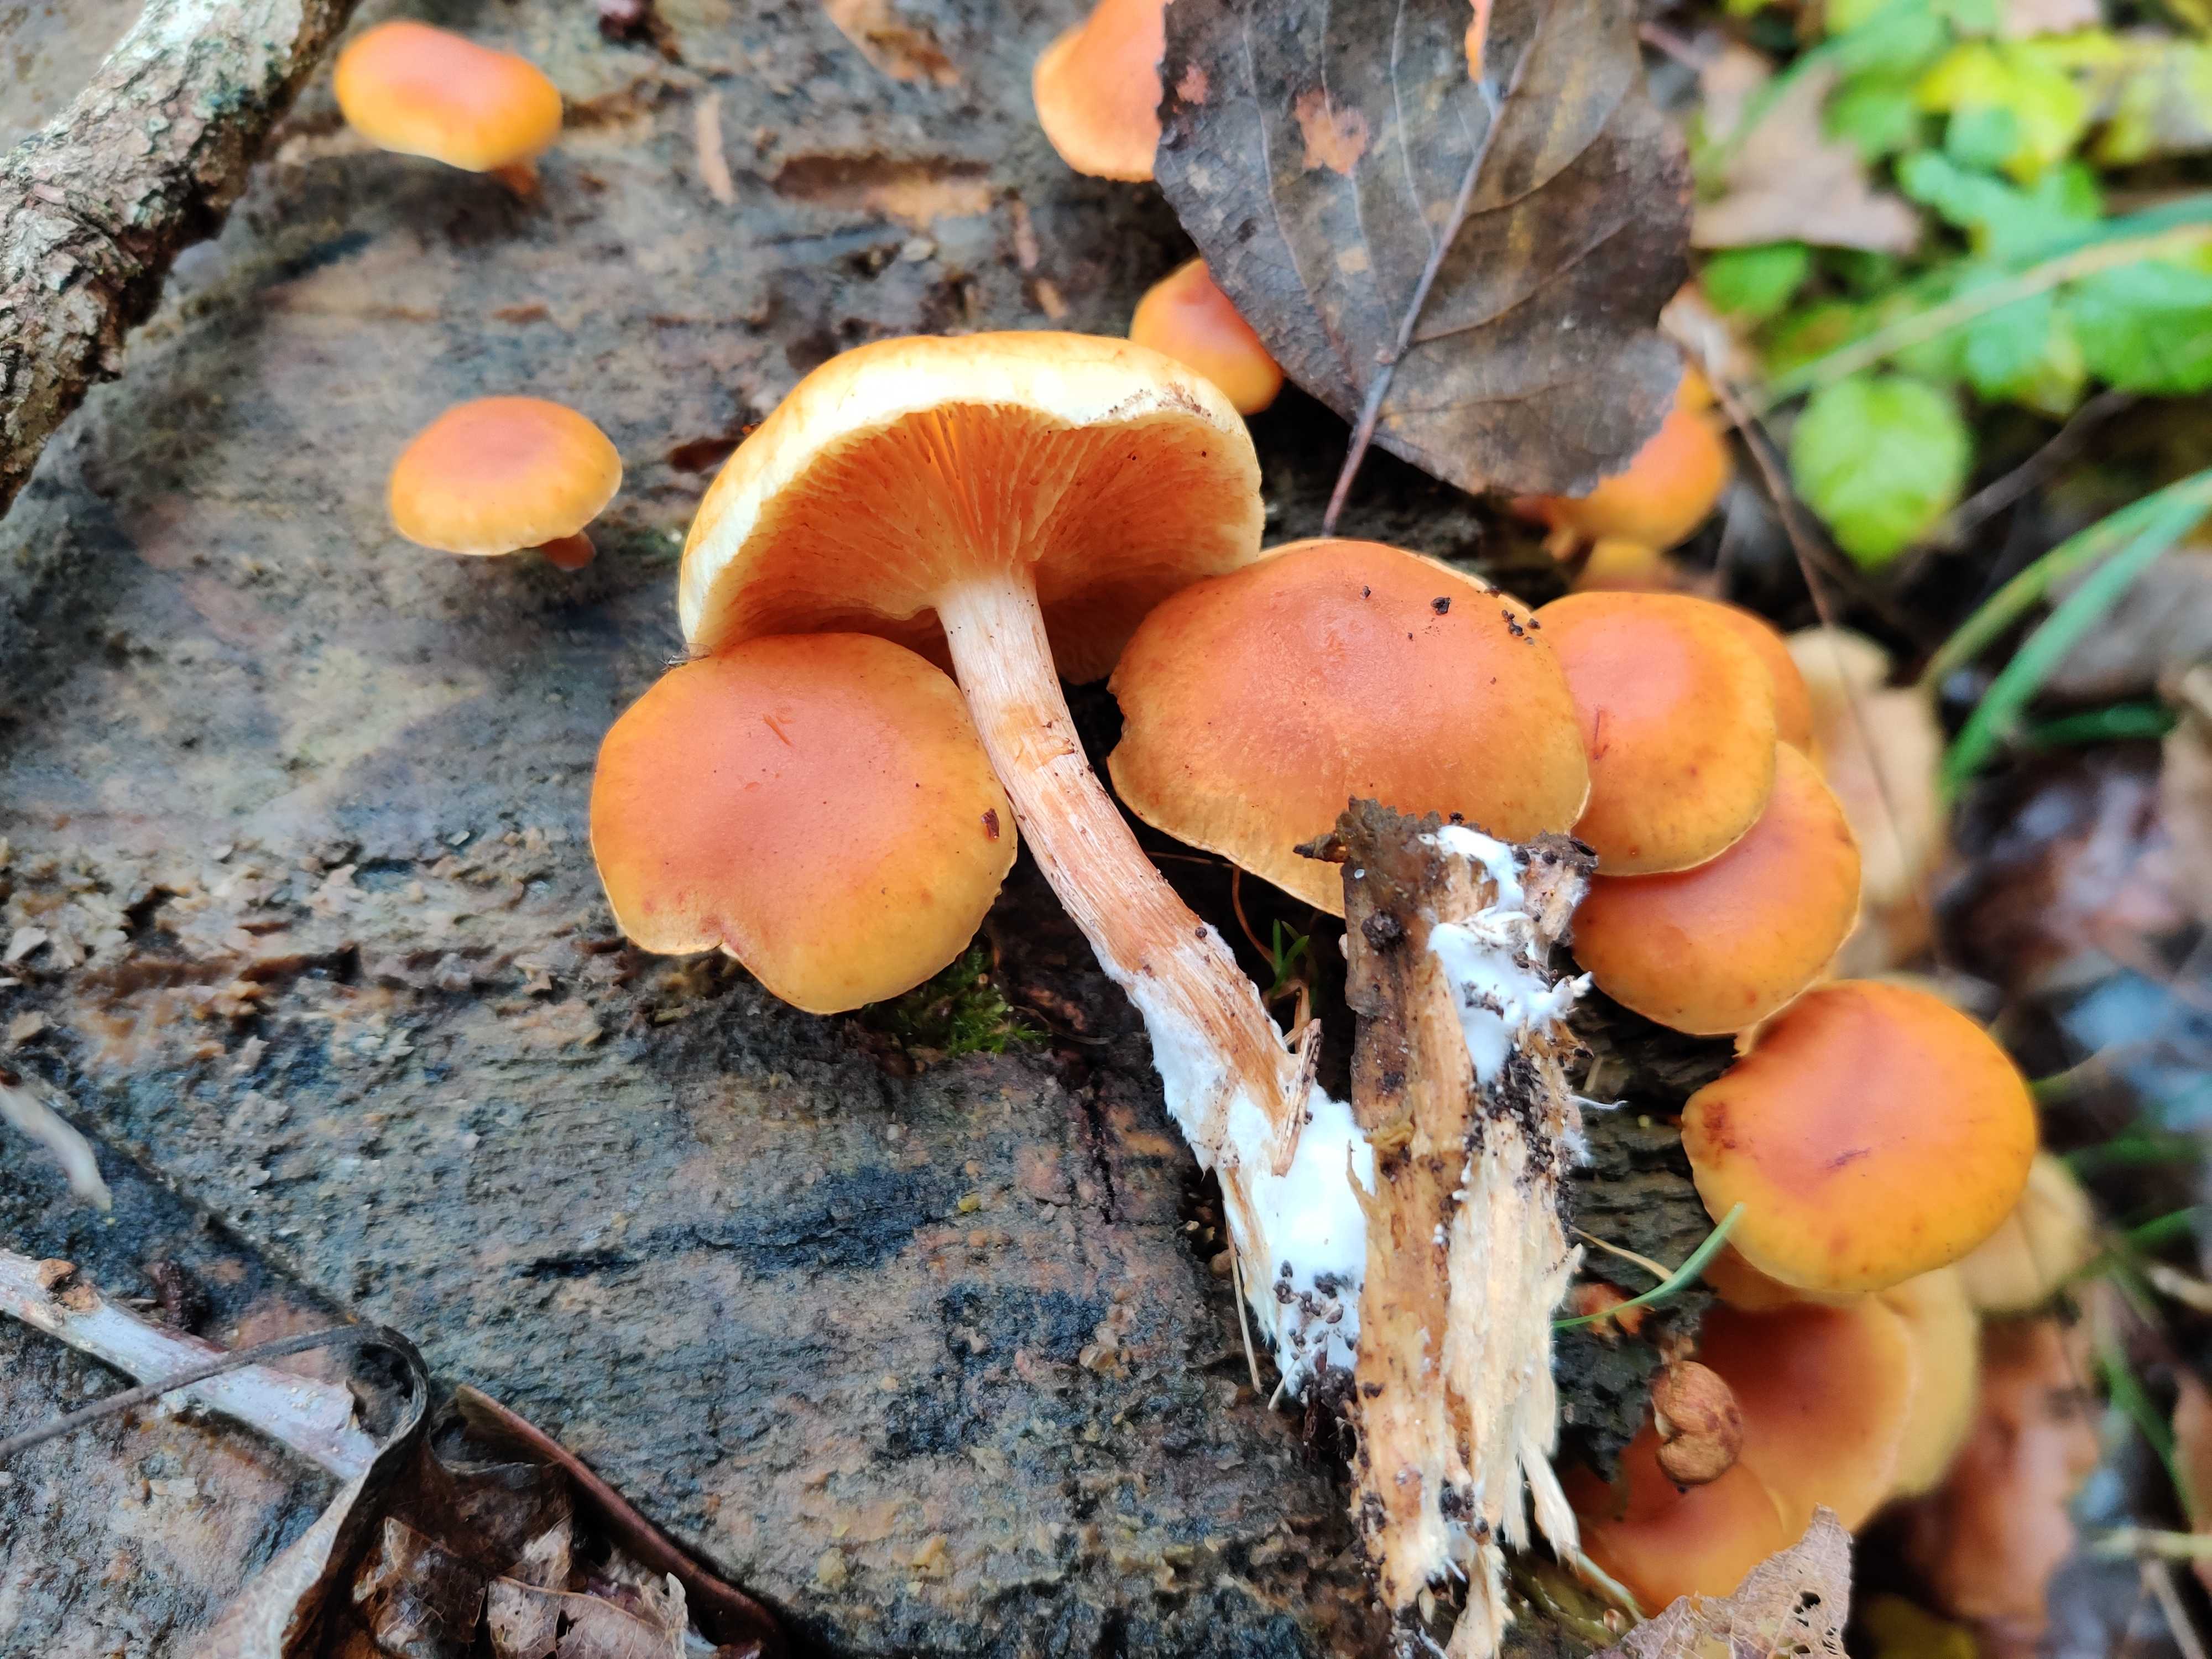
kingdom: Fungi
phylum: Basidiomycota
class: Agaricomycetes
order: Agaricales
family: Hymenogastraceae
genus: Gymnopilus
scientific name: Gymnopilus penetrans
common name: plettet flammehat
